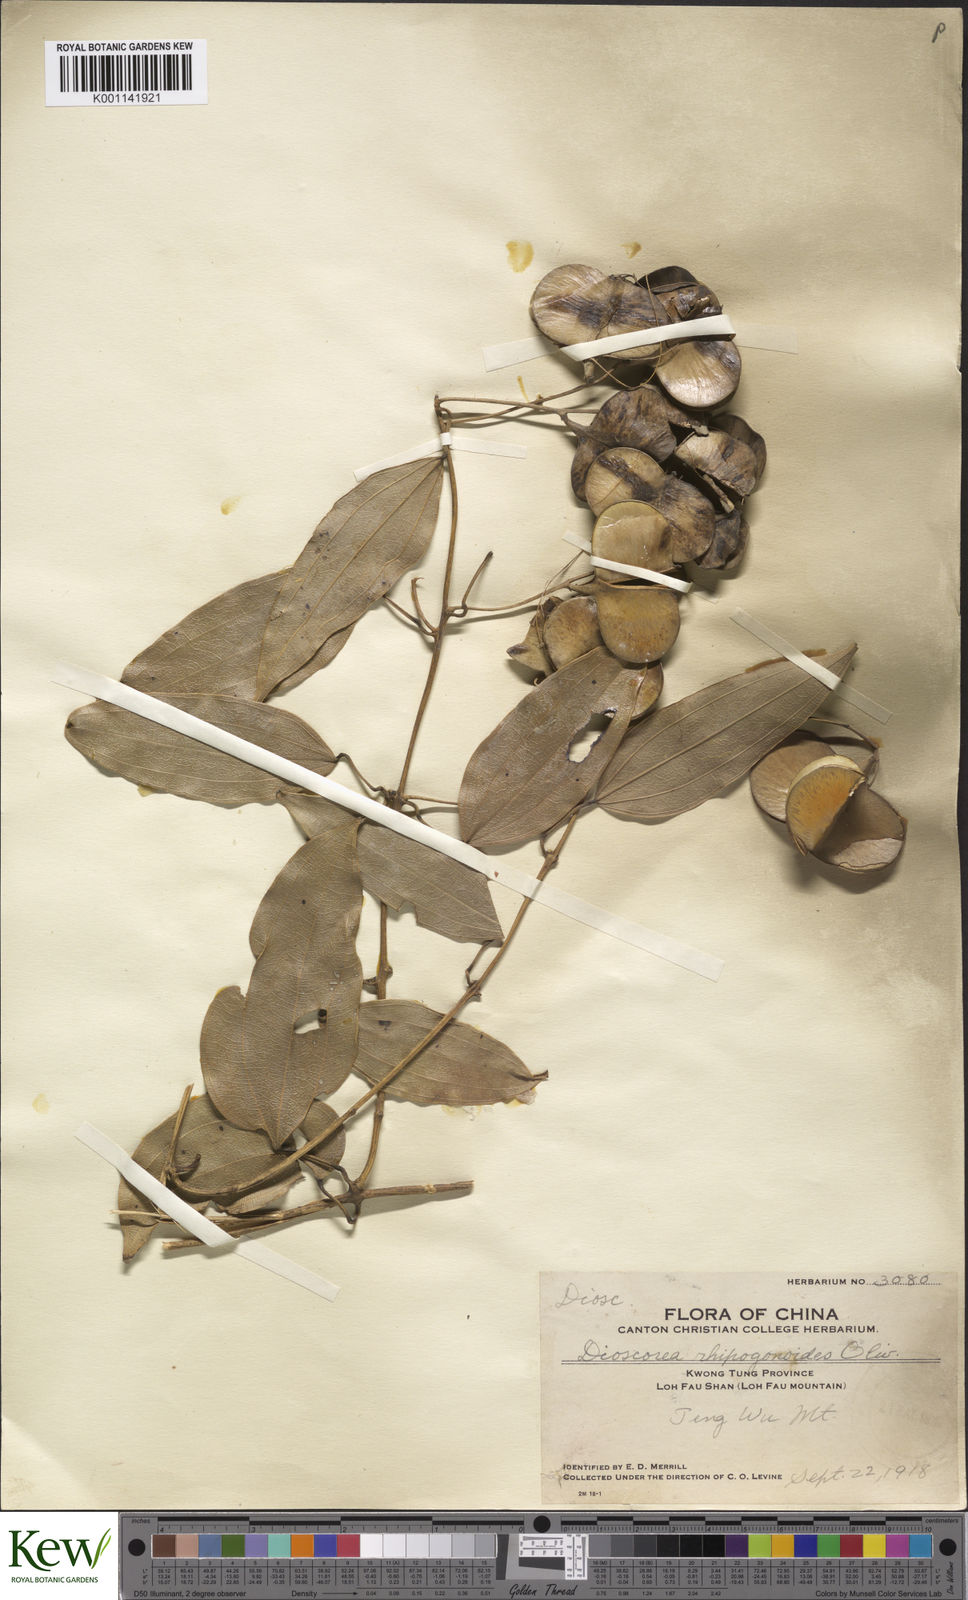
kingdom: Plantae
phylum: Tracheophyta
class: Liliopsida
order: Dioscoreales
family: Dioscoreaceae
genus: Dioscorea
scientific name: Dioscorea cirrhosa
